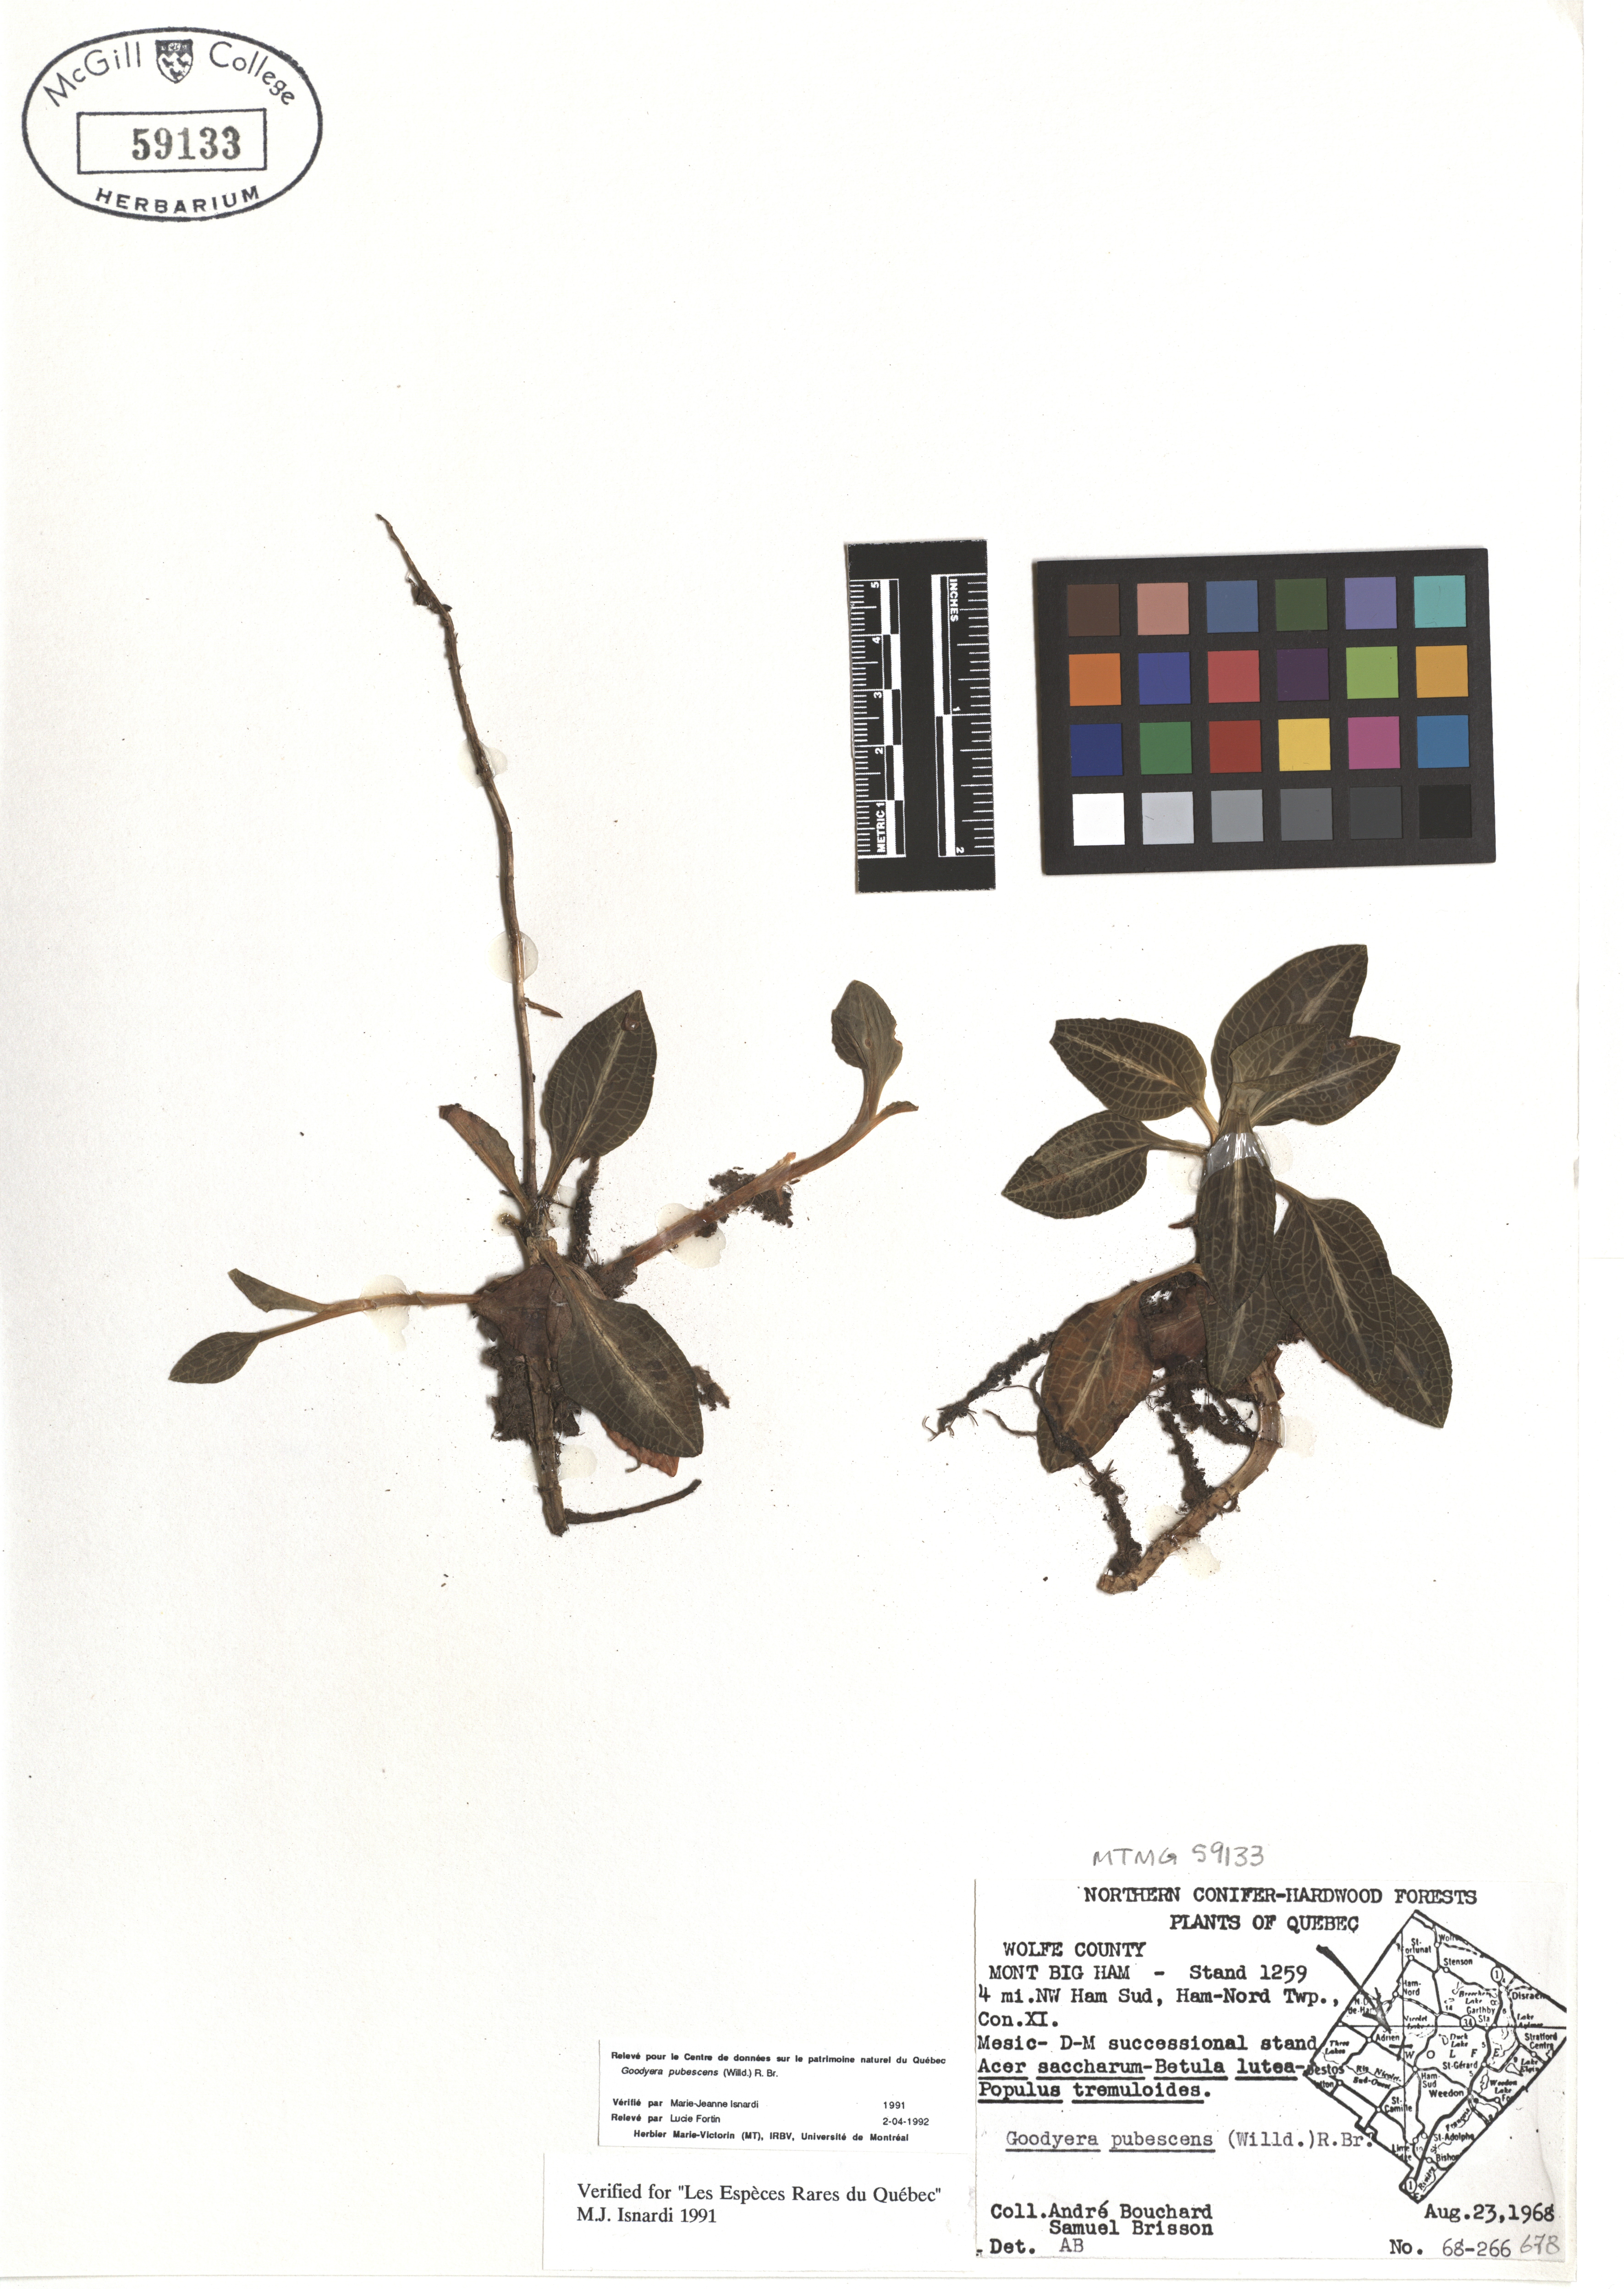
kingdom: Plantae
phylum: Tracheophyta
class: Liliopsida
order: Asparagales
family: Orchidaceae
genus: Goodyera
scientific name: Goodyera pubescens
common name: Downy rattlesnake-plantain
